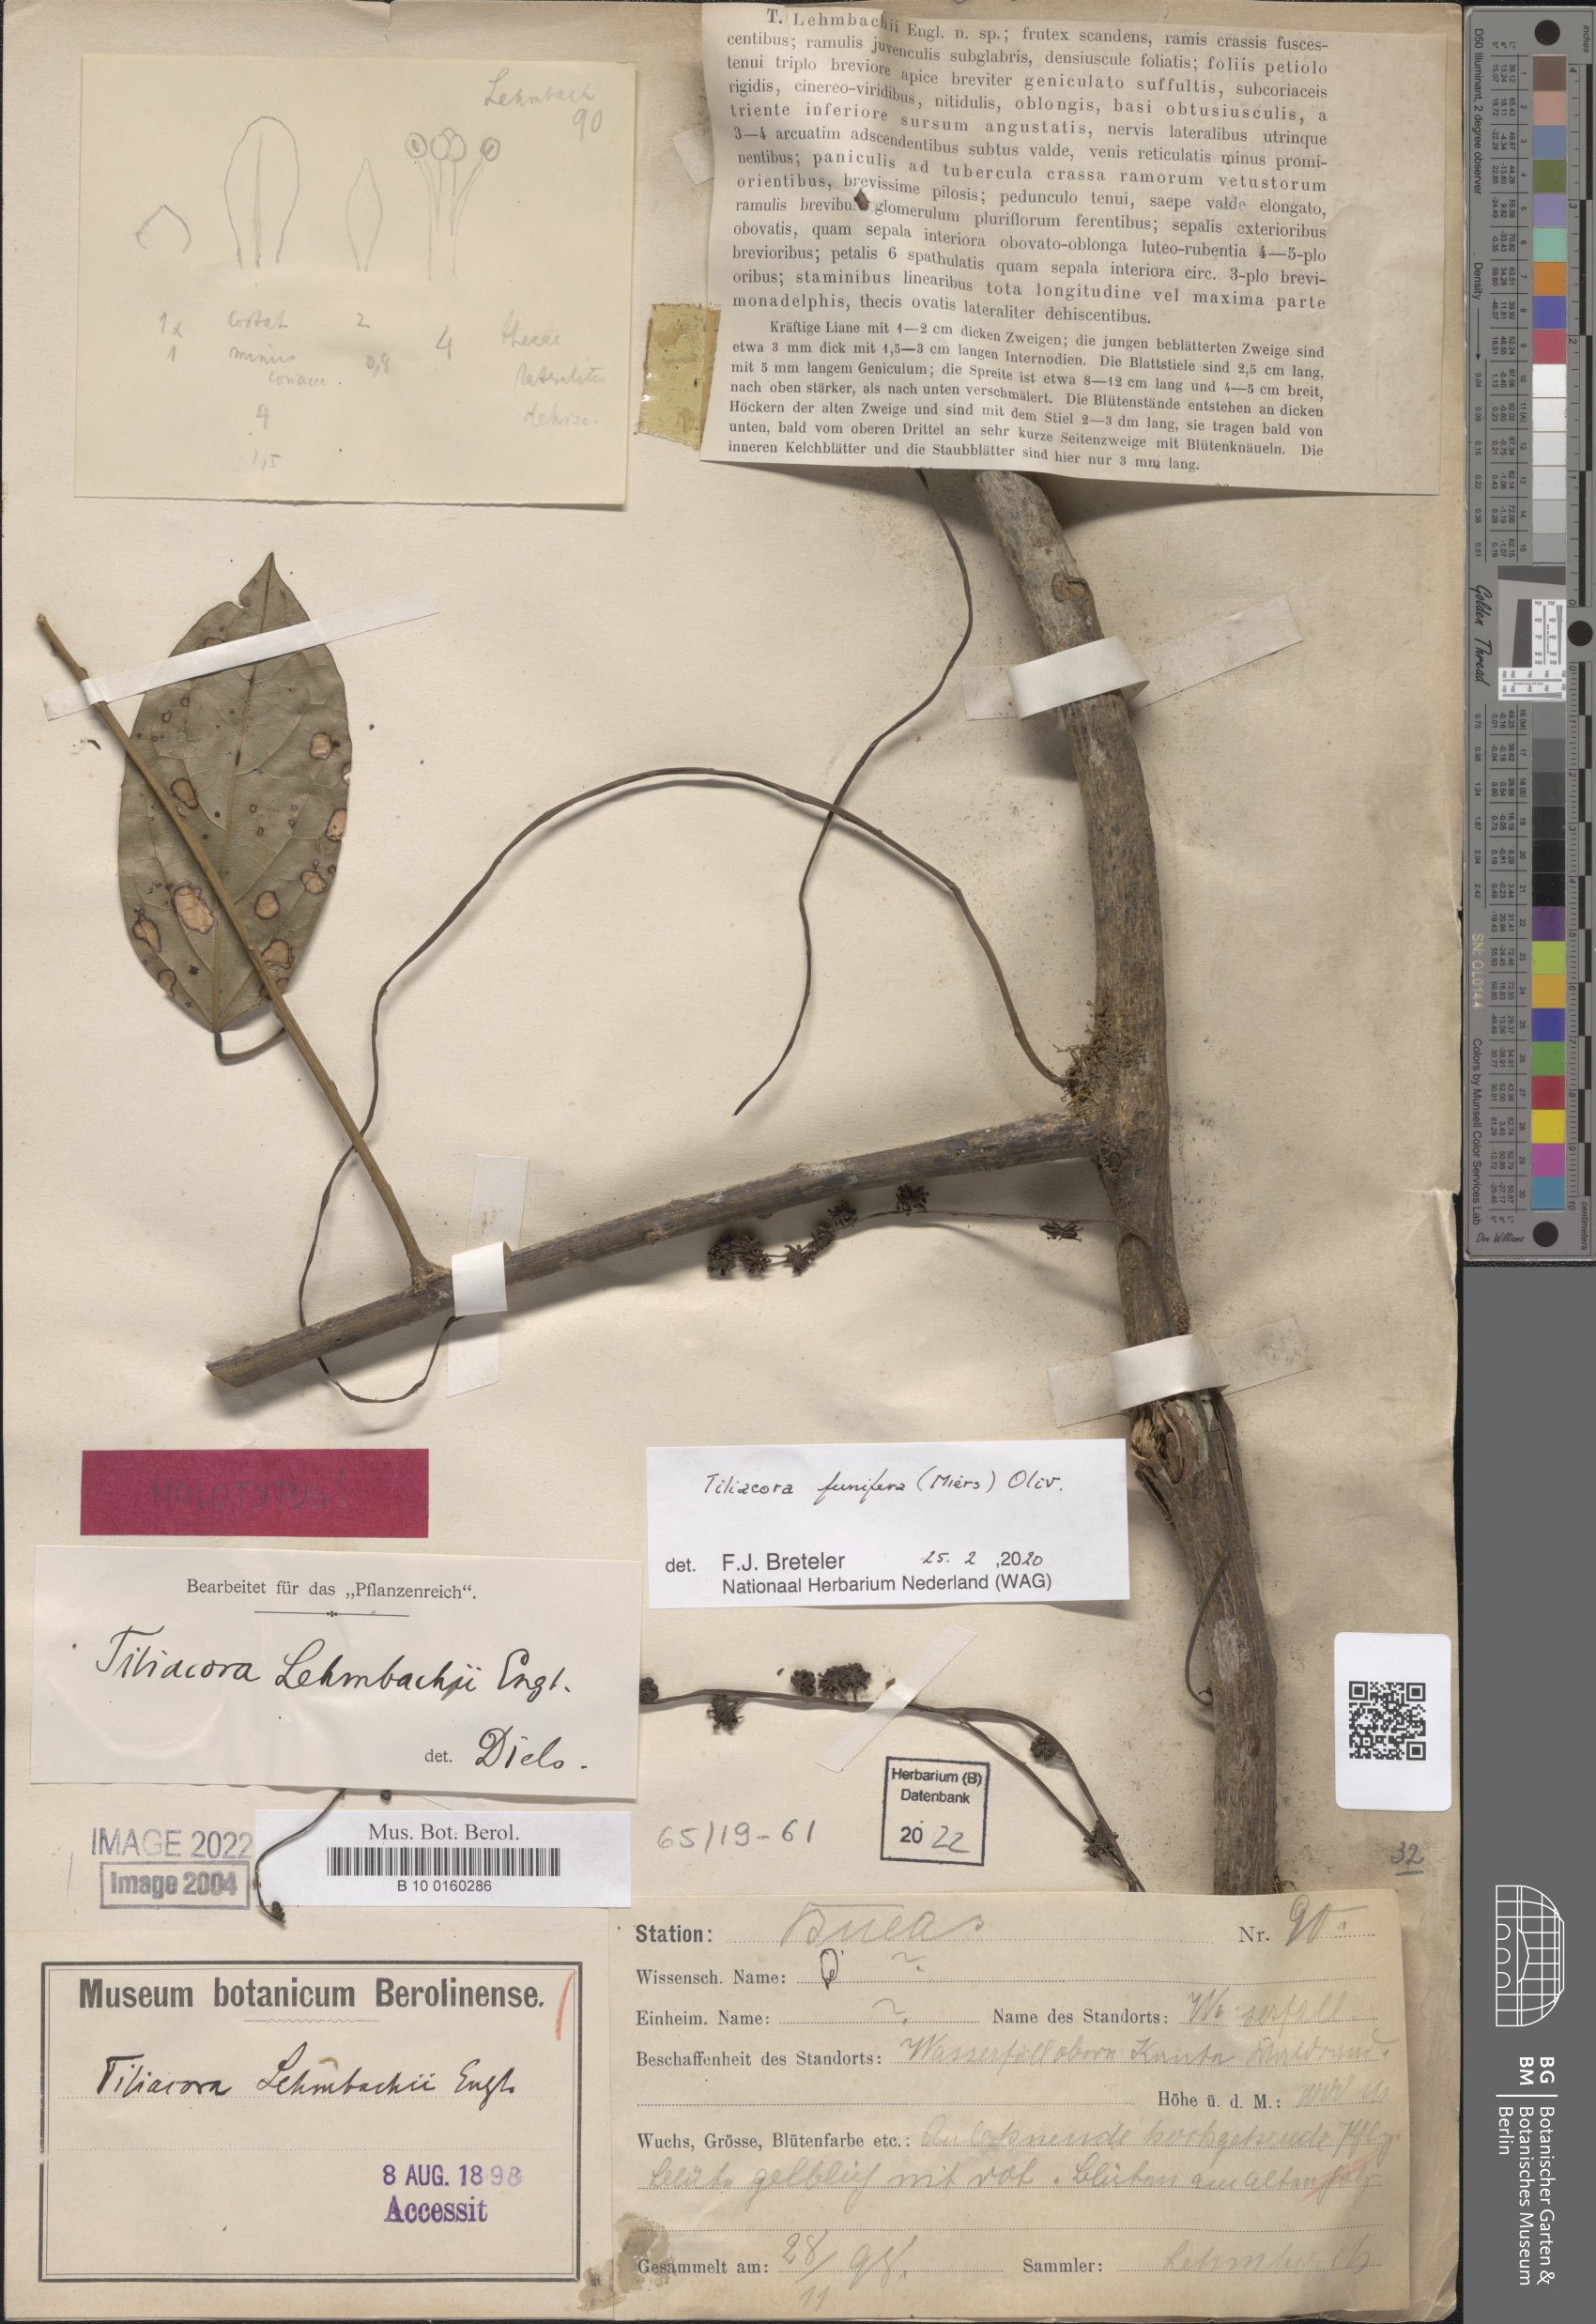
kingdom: Plantae
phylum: Tracheophyta
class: Magnoliopsida
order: Ranunculales
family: Menispermaceae
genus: Tiliacora
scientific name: Tiliacora funifera
